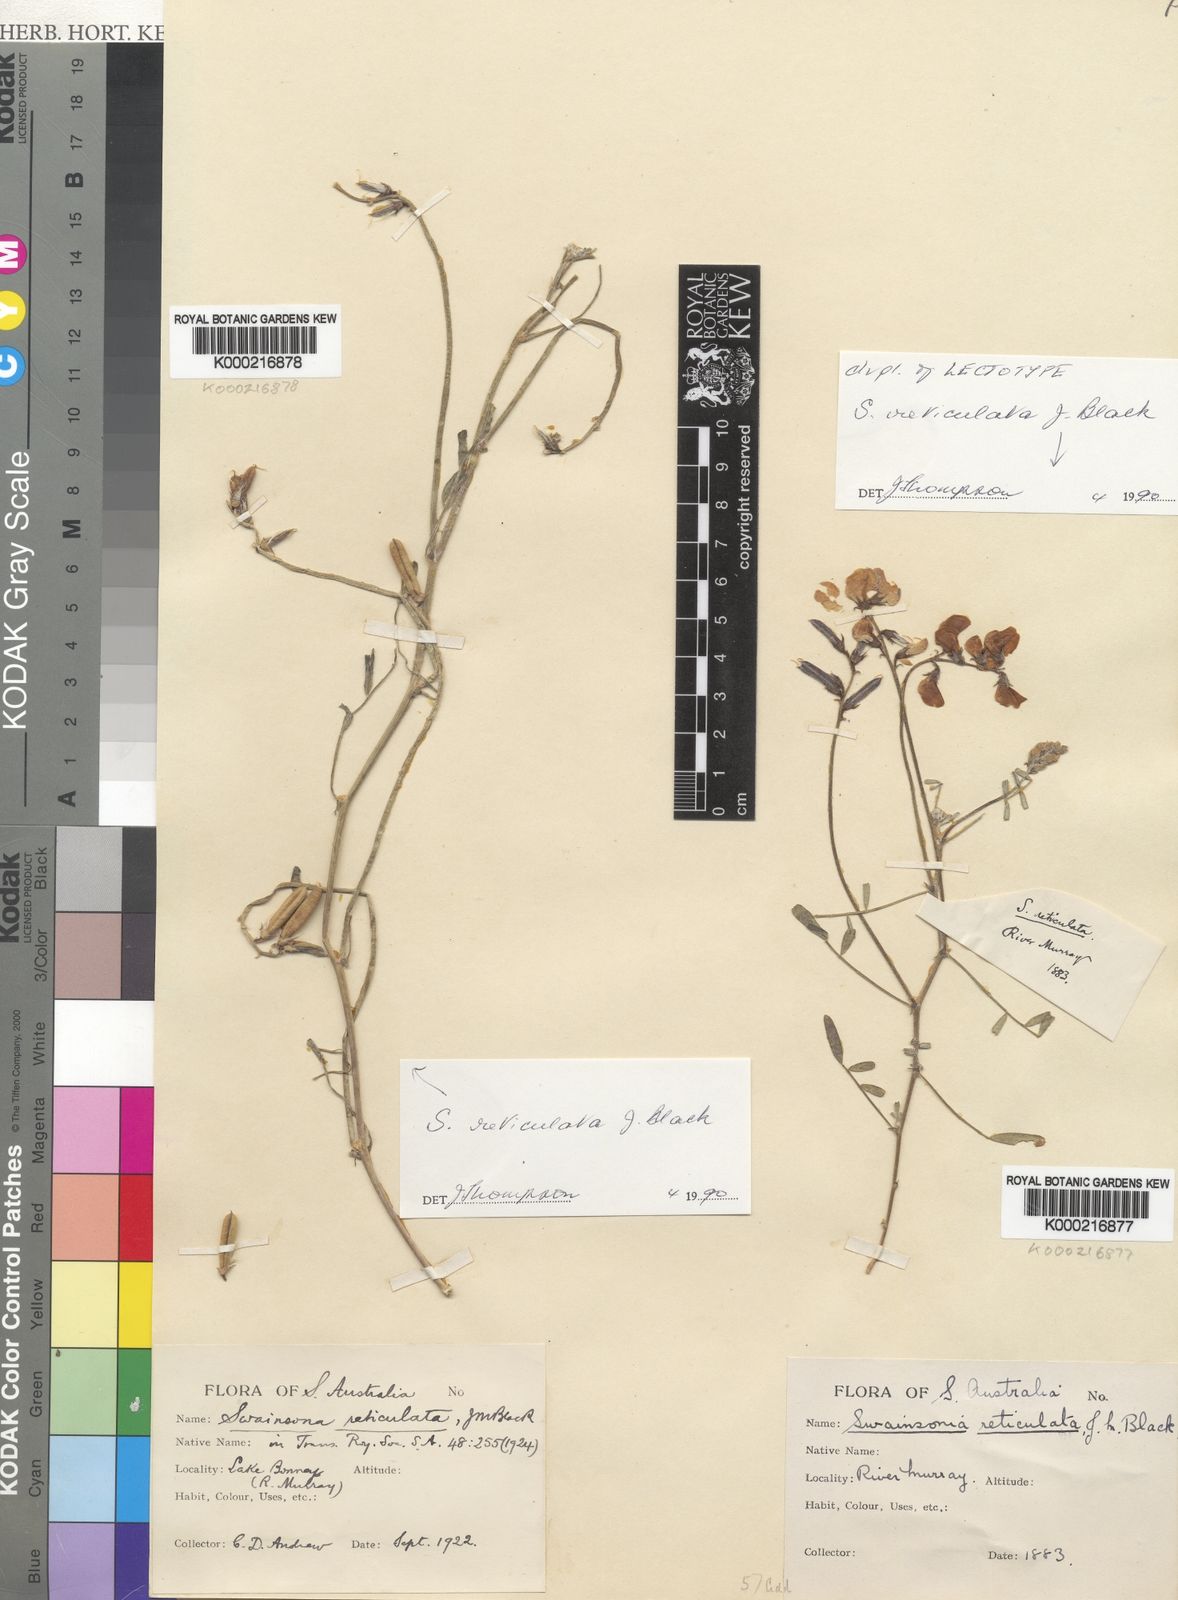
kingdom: Plantae
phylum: Tracheophyta
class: Magnoliopsida
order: Fabales
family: Fabaceae
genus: Swainsona
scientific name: Swainsona reticulata
